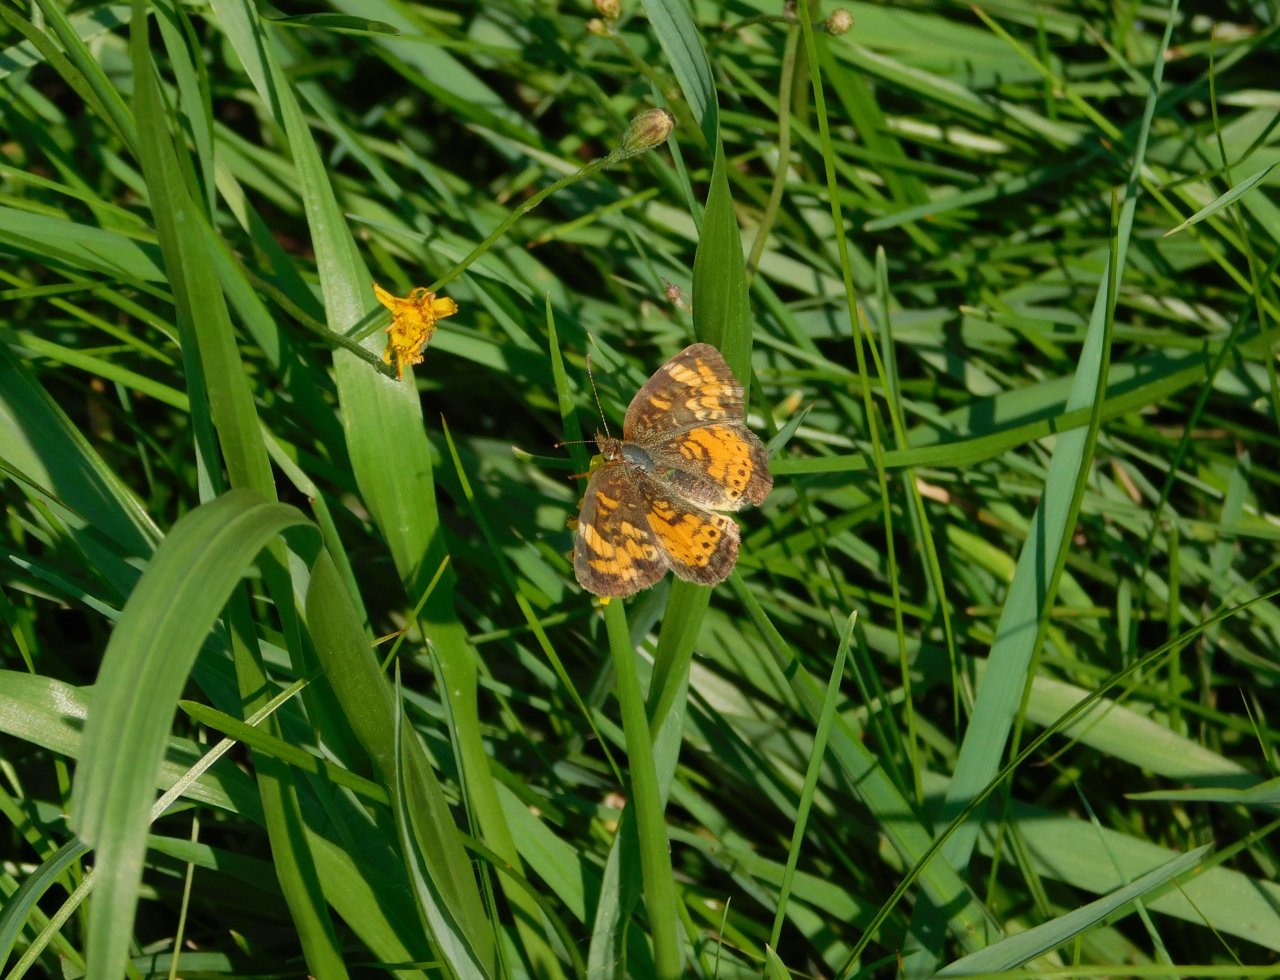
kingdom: Animalia
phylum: Arthropoda
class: Insecta
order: Lepidoptera
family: Nymphalidae
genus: Phyciodes
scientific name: Phyciodes tharos
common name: Northern Crescent
